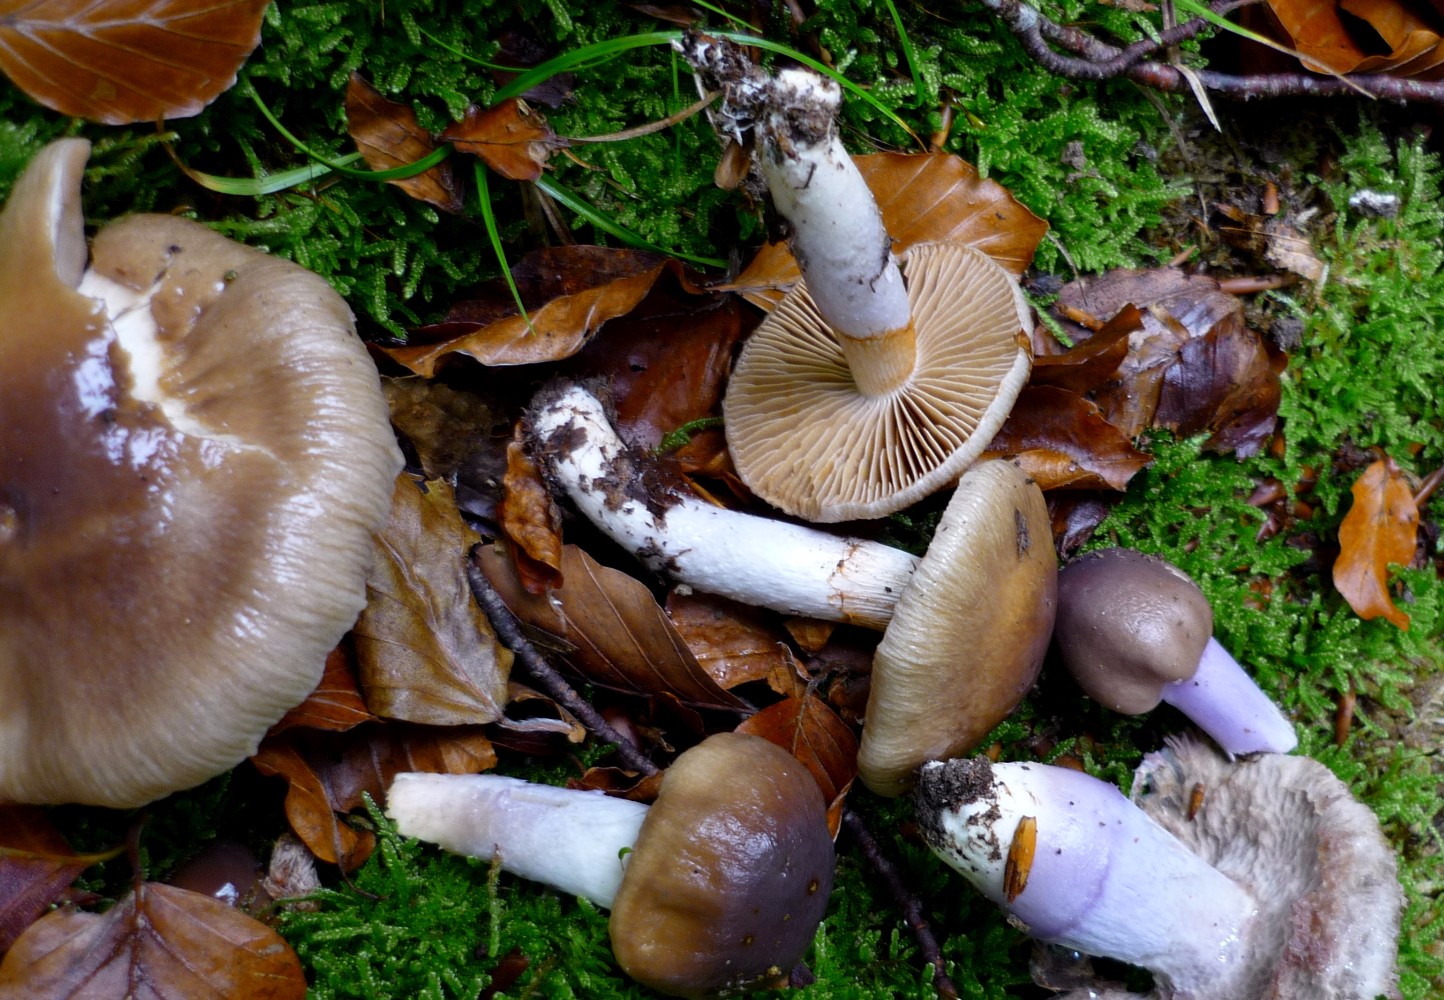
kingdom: Fungi
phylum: Basidiomycota
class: Agaricomycetes
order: Agaricales
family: Cortinariaceae
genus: Cortinarius
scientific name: Cortinarius elatior
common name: høj slørhat
